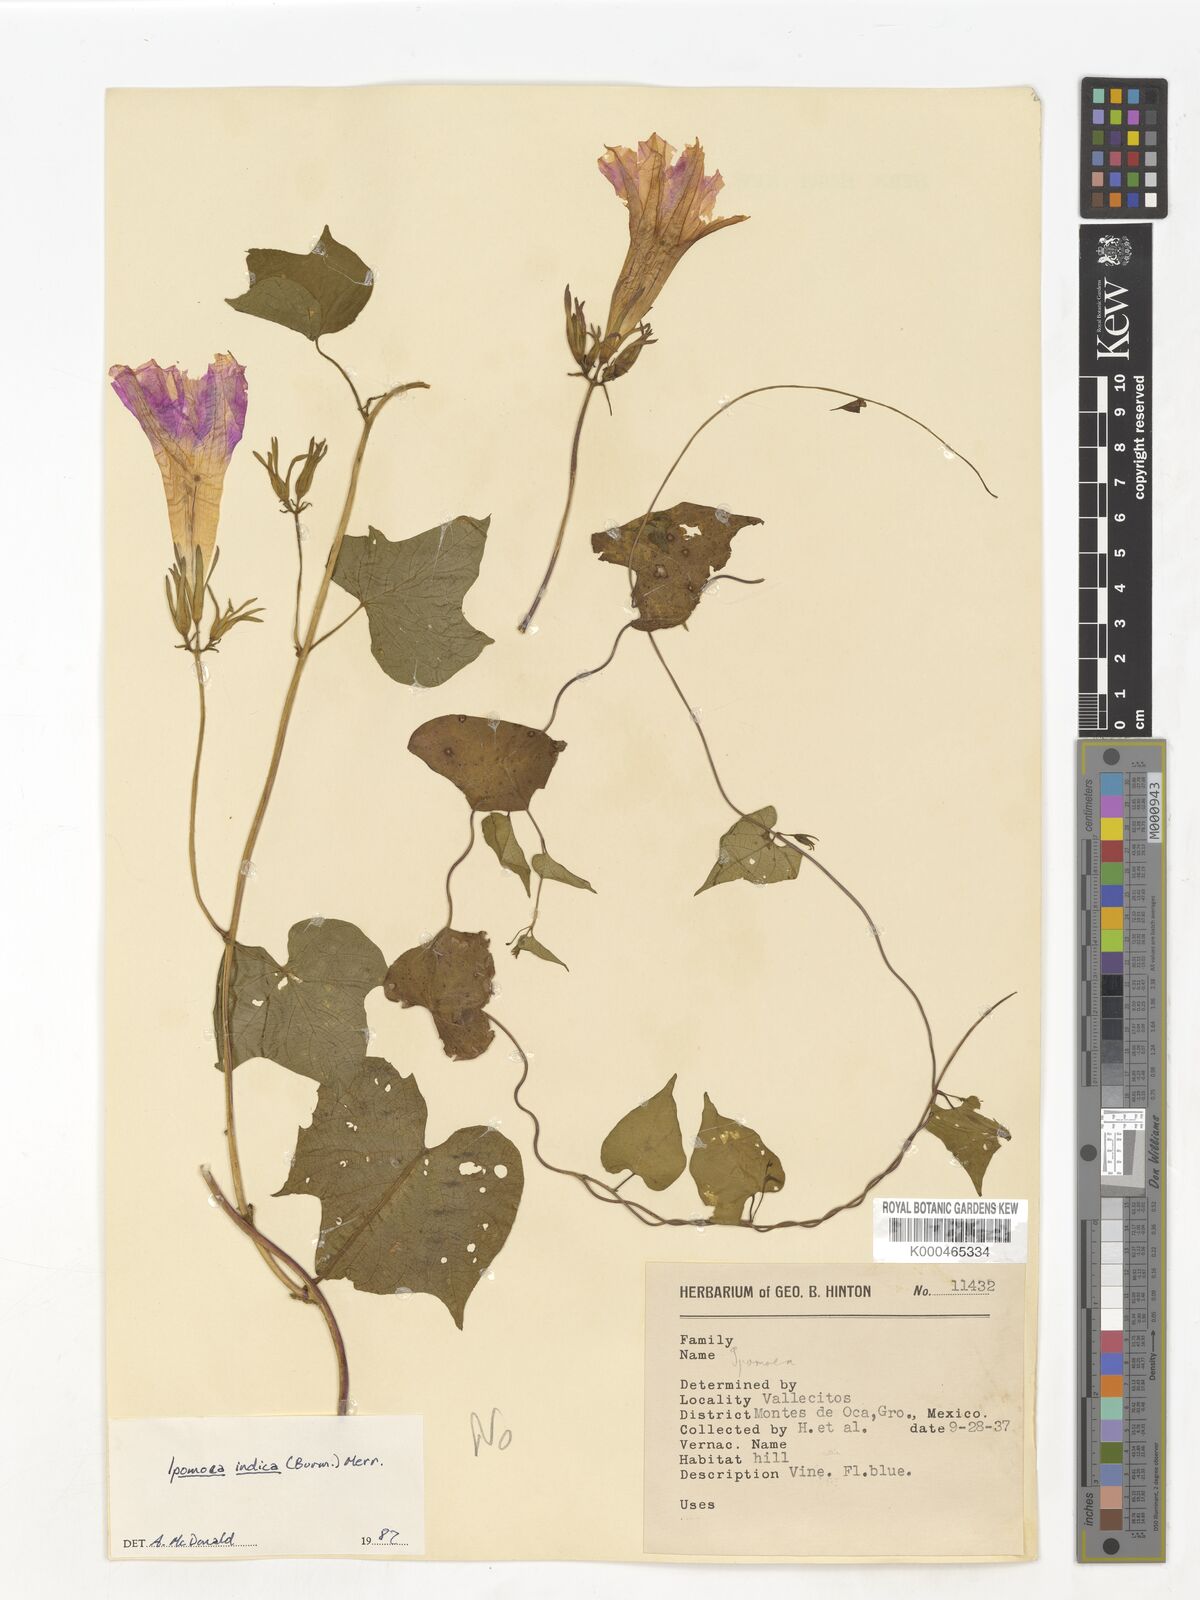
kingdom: Plantae
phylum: Tracheophyta
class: Magnoliopsida
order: Solanales
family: Convolvulaceae
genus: Ipomoea
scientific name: Ipomoea indica
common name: Blue dawnflower
